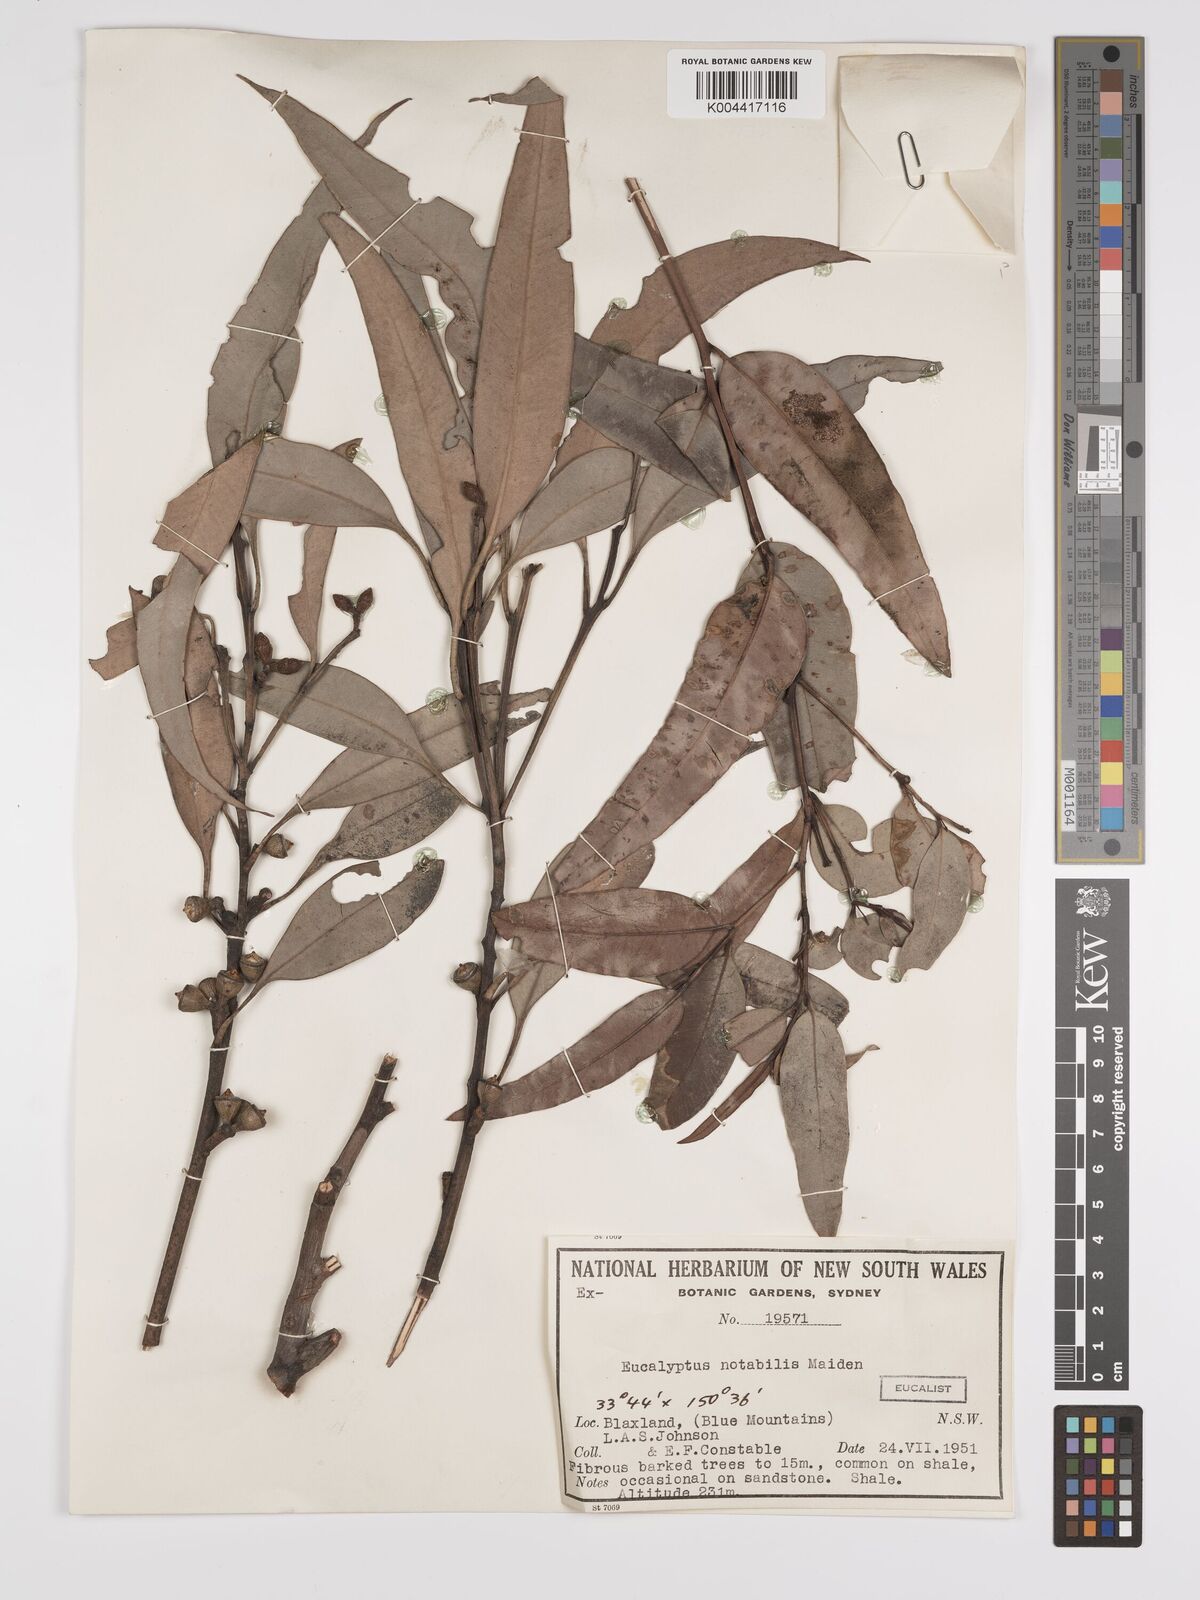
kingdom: Plantae
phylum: Tracheophyta
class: Magnoliopsida
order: Myrtales
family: Myrtaceae
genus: Eucalyptus
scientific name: Eucalyptus notabilis
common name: Blue mountains-mahogany
